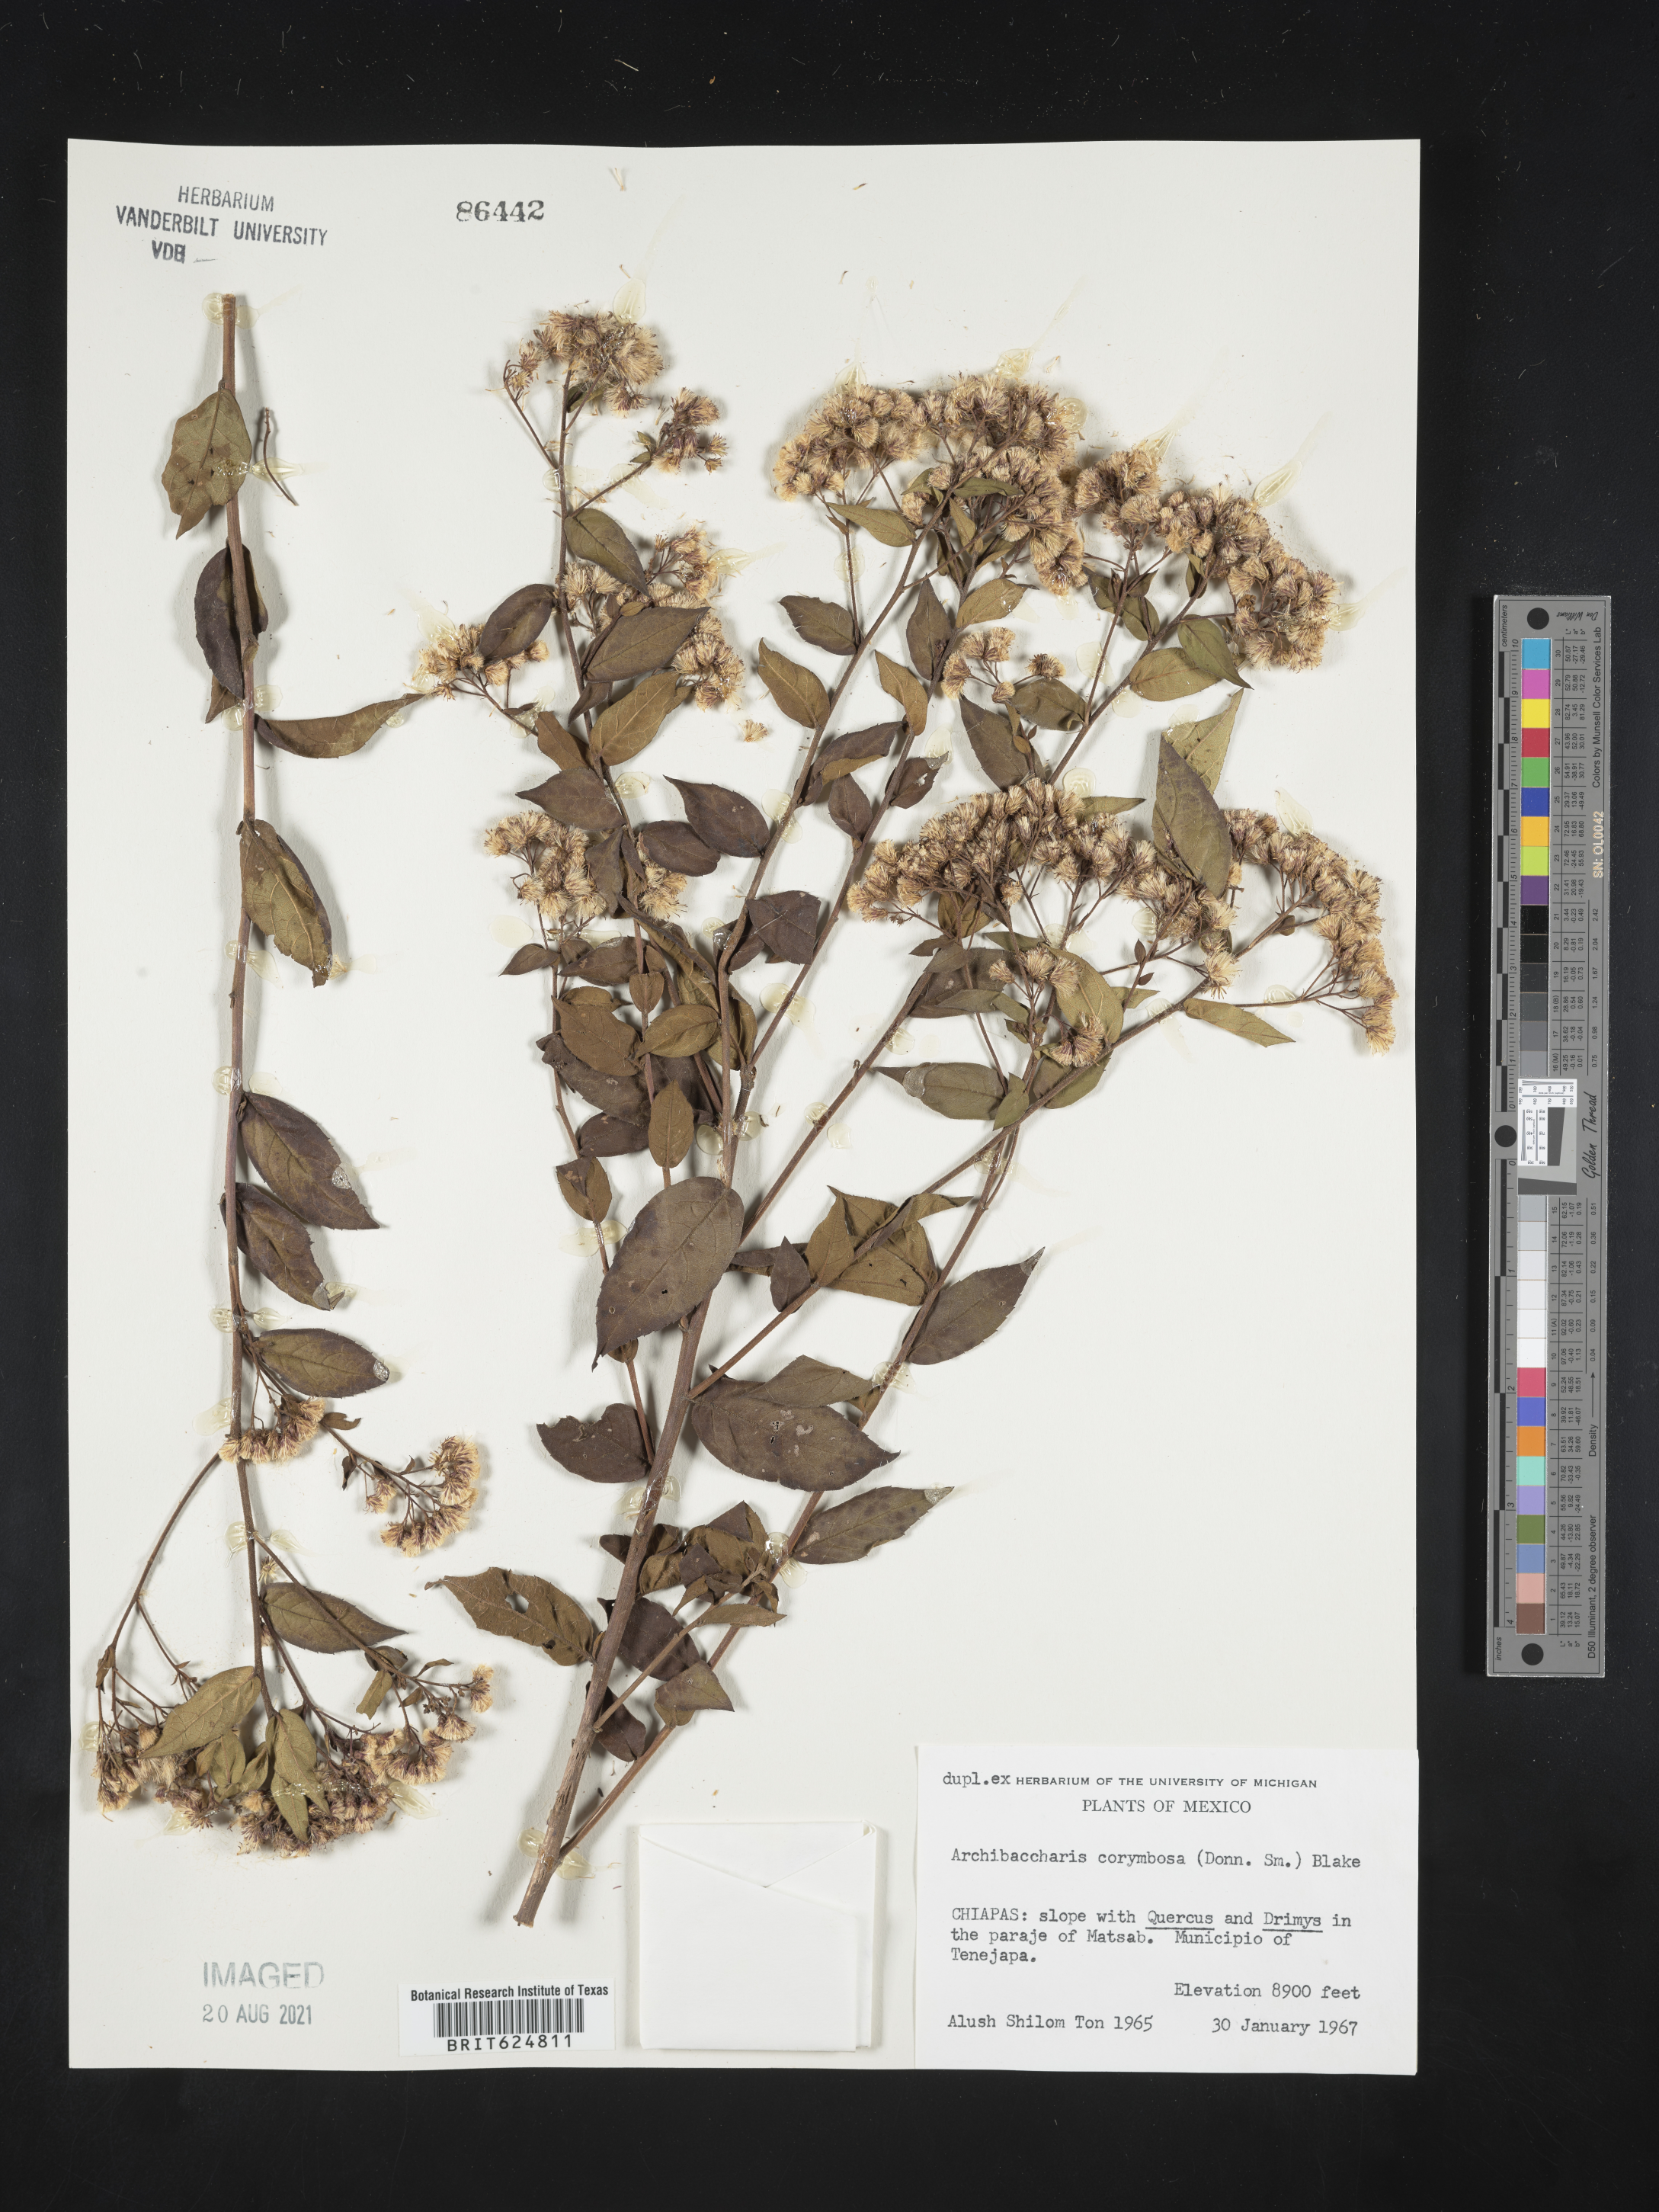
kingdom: Plantae
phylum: Tracheophyta
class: Magnoliopsida
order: Asterales
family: Asteraceae
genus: Archibaccharis
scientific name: Archibaccharis
